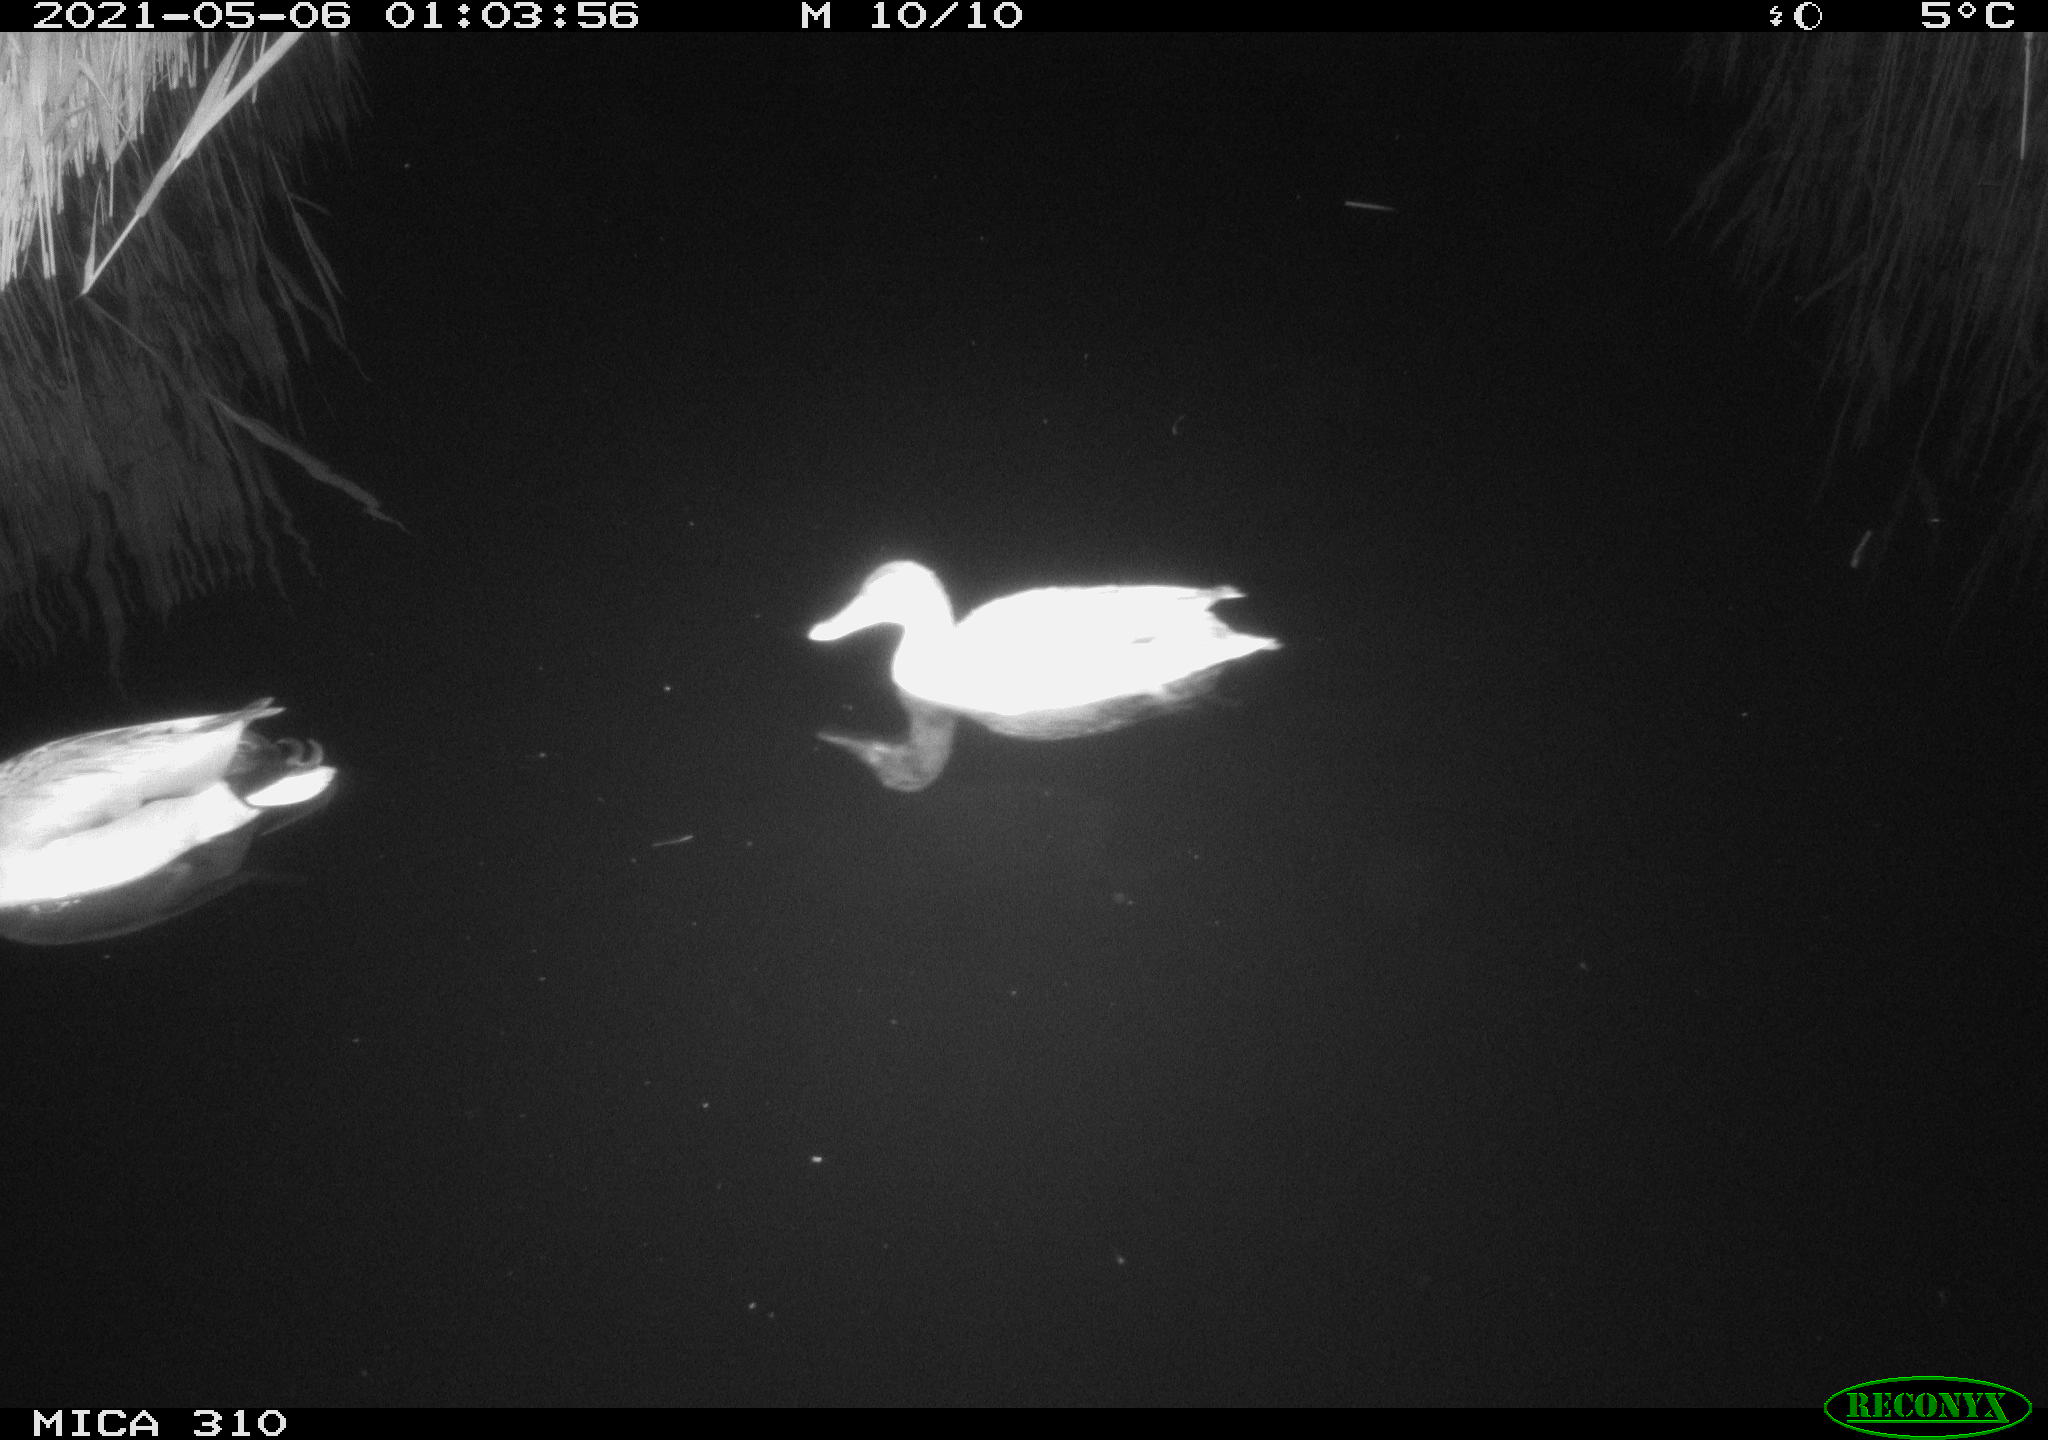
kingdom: Animalia
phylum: Chordata
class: Aves
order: Anseriformes
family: Anatidae
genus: Anas
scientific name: Anas platyrhynchos
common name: Mallard
